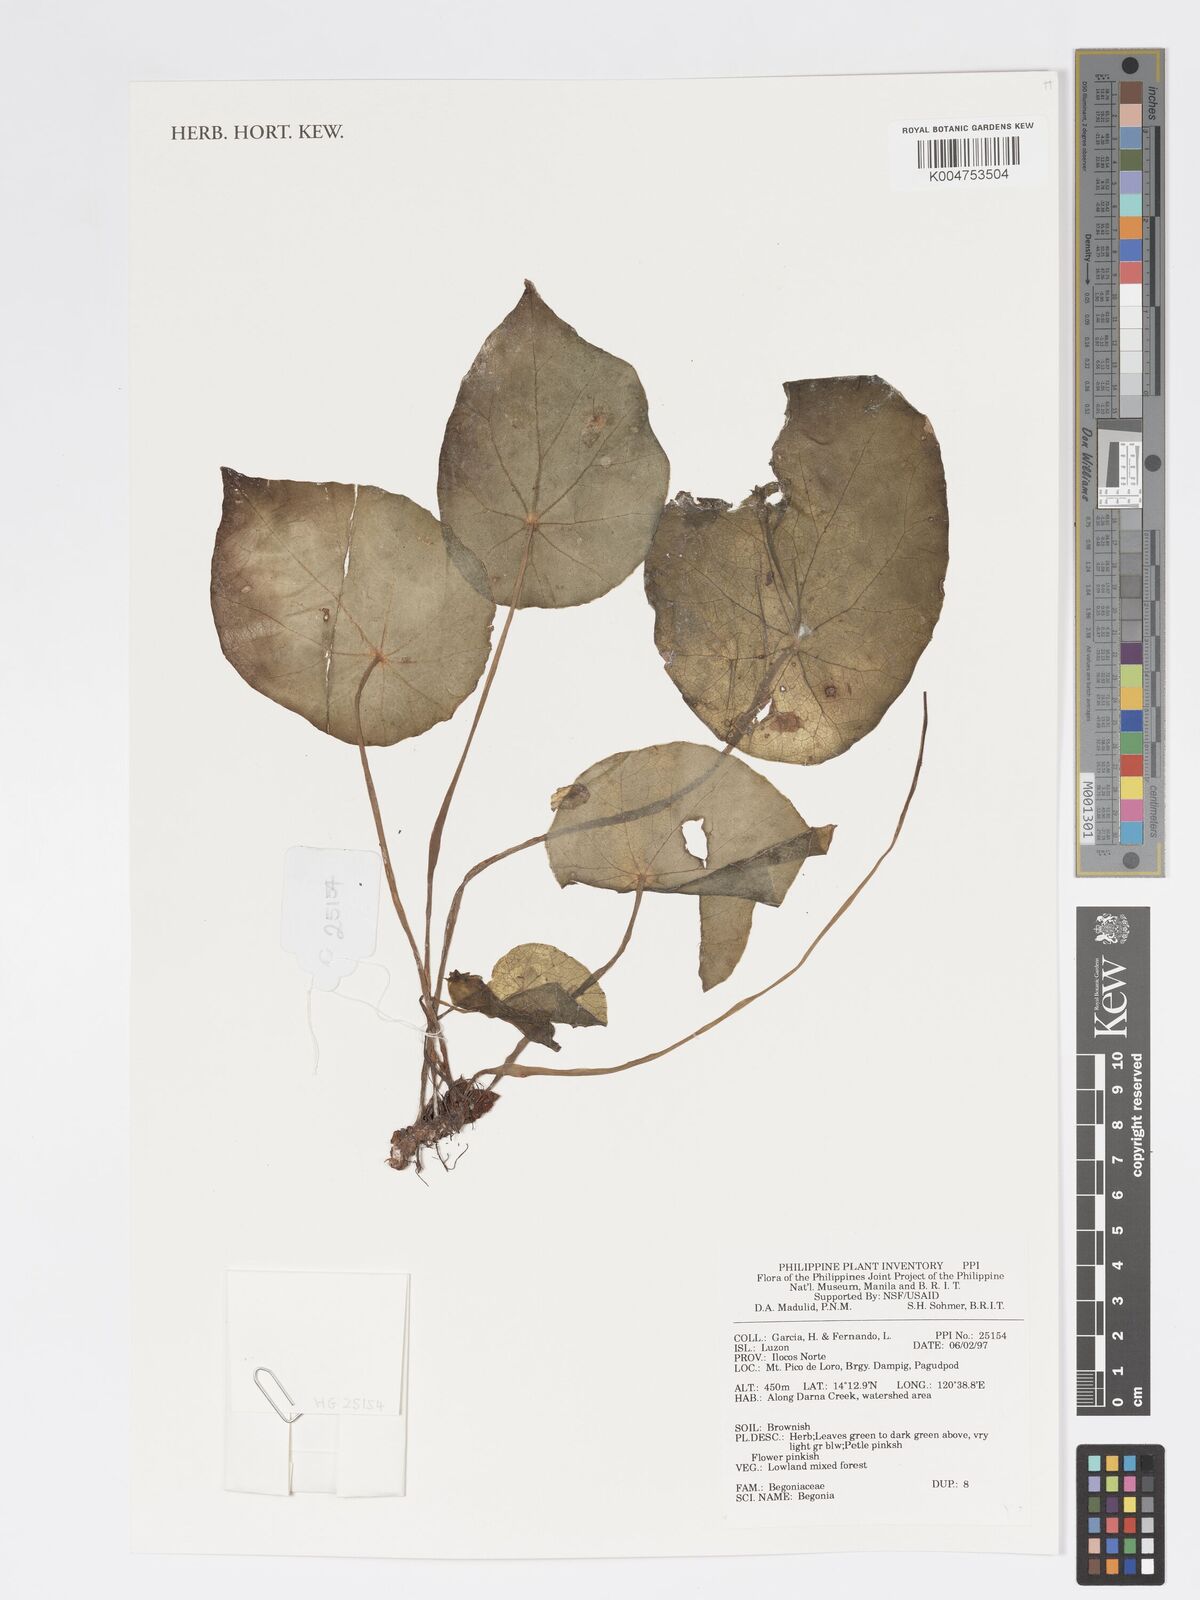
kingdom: Plantae
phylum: Tracheophyta
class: Magnoliopsida
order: Cucurbitales
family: Begoniaceae
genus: Begonia
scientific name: Begonia
